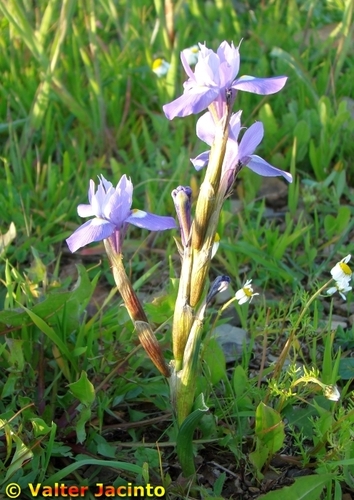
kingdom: Plantae
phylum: Tracheophyta
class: Liliopsida
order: Asparagales
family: Iridaceae
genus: Moraea
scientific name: Moraea sisyrinchium
